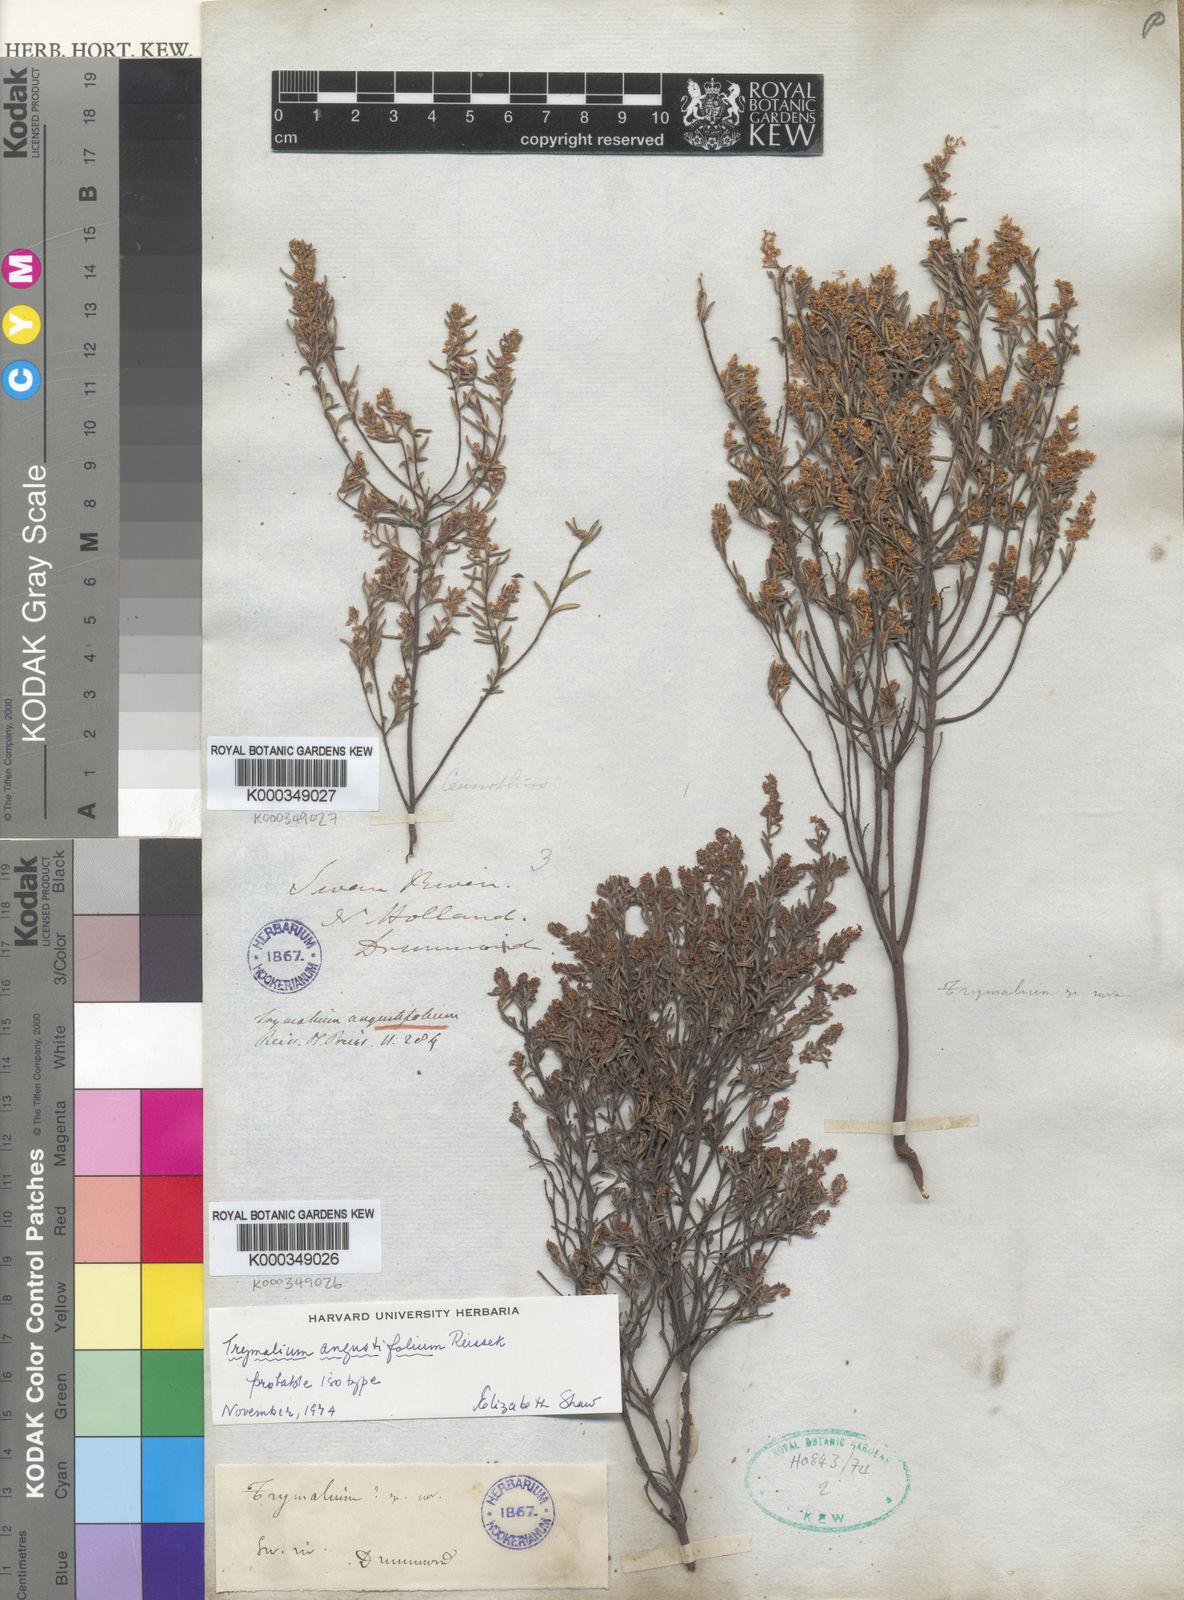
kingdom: Plantae
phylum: Tracheophyta
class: Magnoliopsida
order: Rosales
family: Rhamnaceae
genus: Trymalium
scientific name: Trymalium angustifolium
